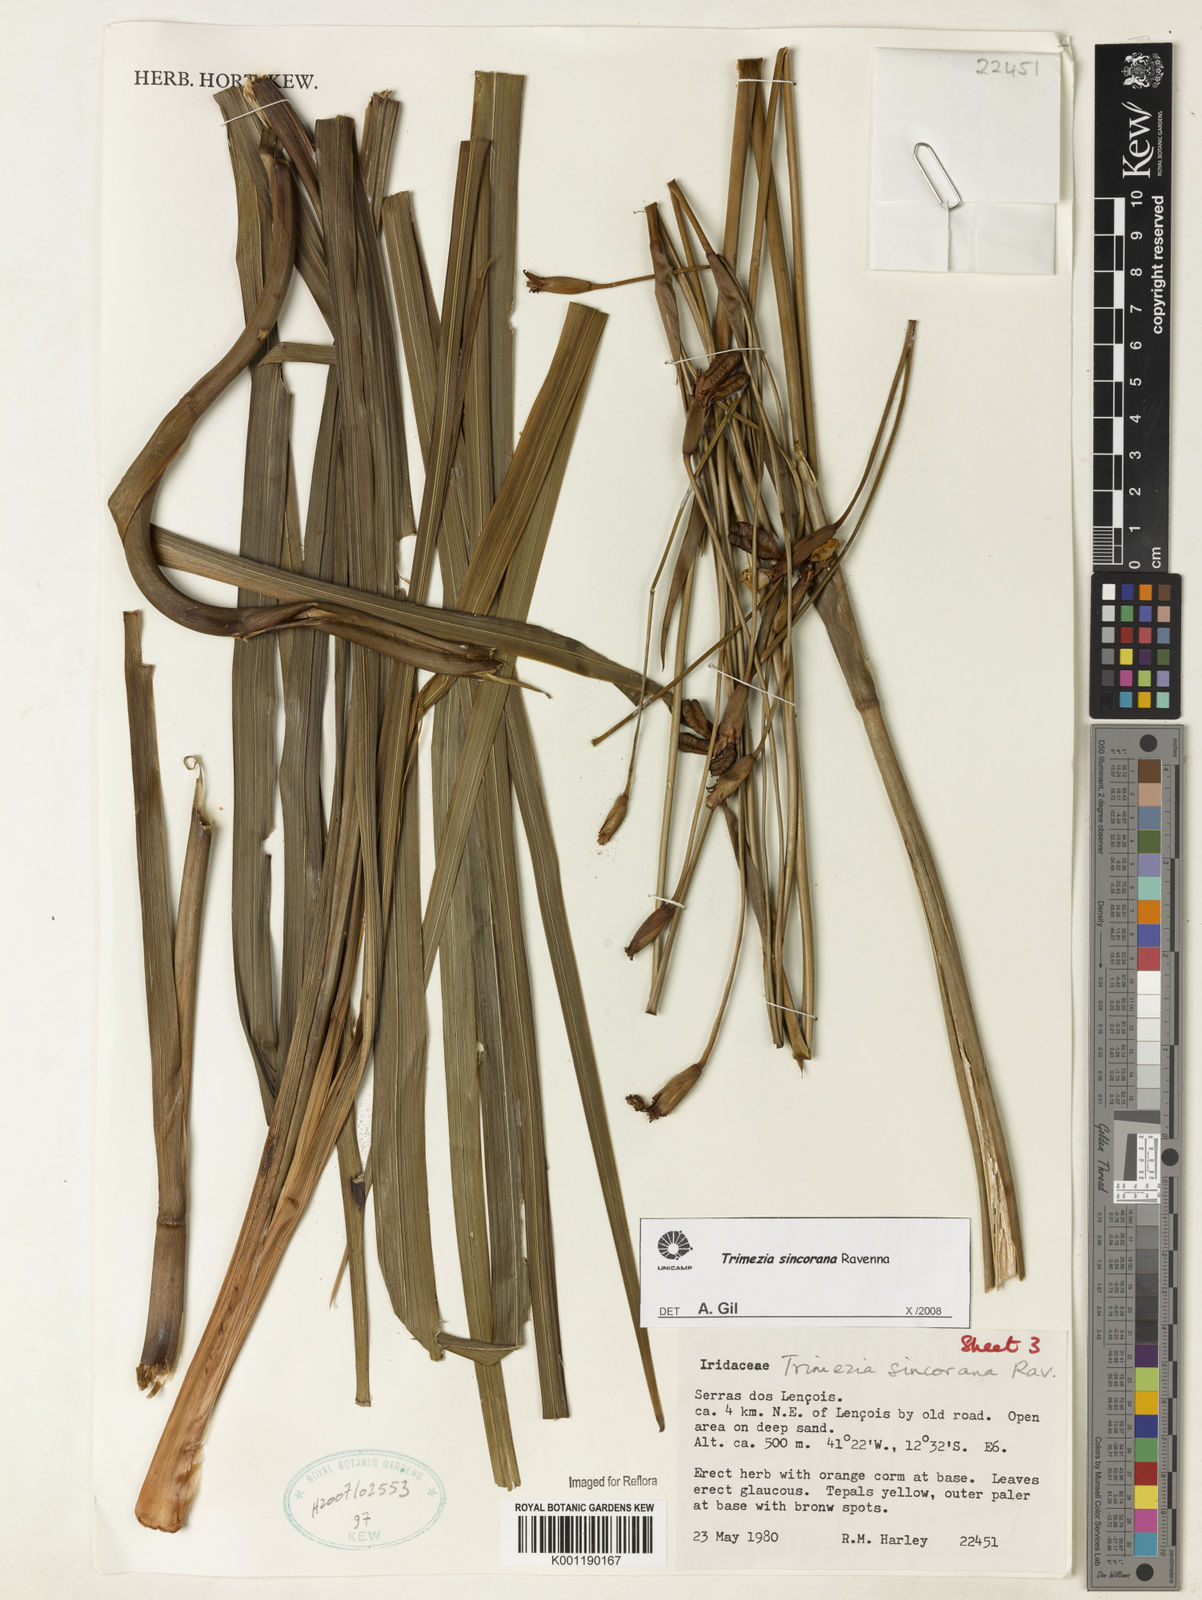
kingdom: Plantae
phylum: Tracheophyta
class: Liliopsida
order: Asparagales
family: Iridaceae
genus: Trimezia
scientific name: Trimezia spathata
